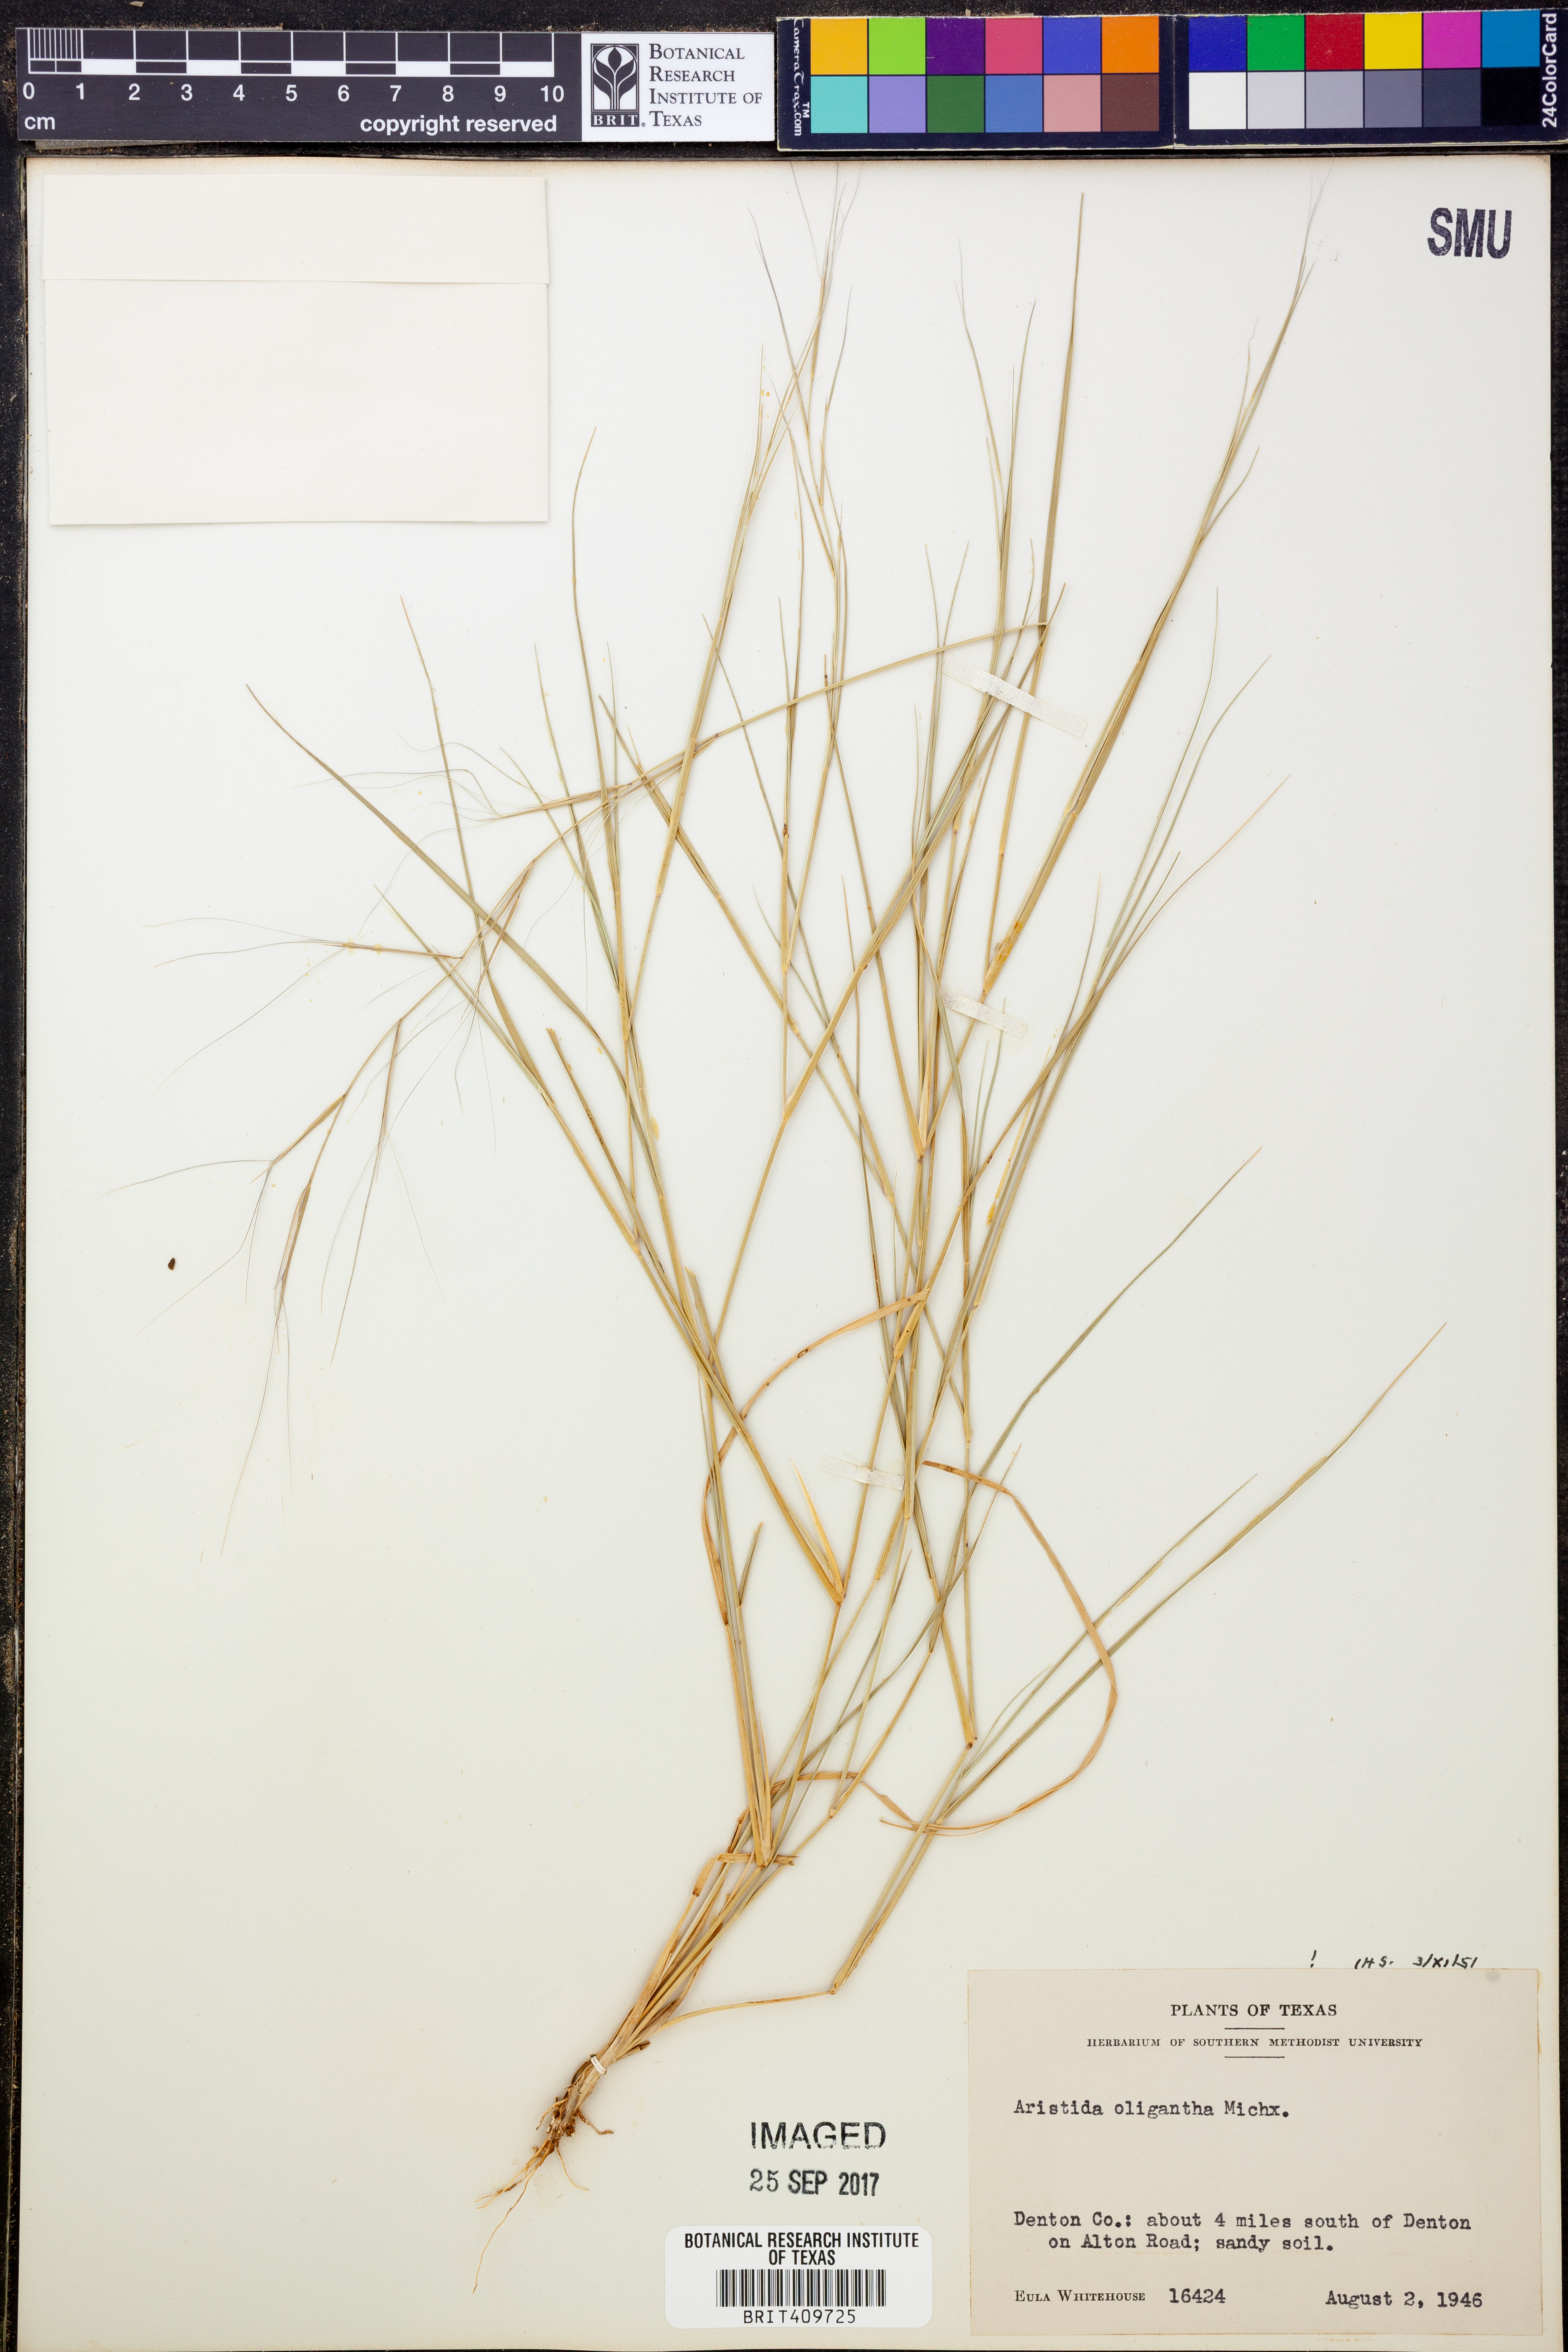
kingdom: Plantae
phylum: Tracheophyta
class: Liliopsida
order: Poales
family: Poaceae
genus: Aristida
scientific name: Aristida oligantha
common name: Few-flowered aristida
